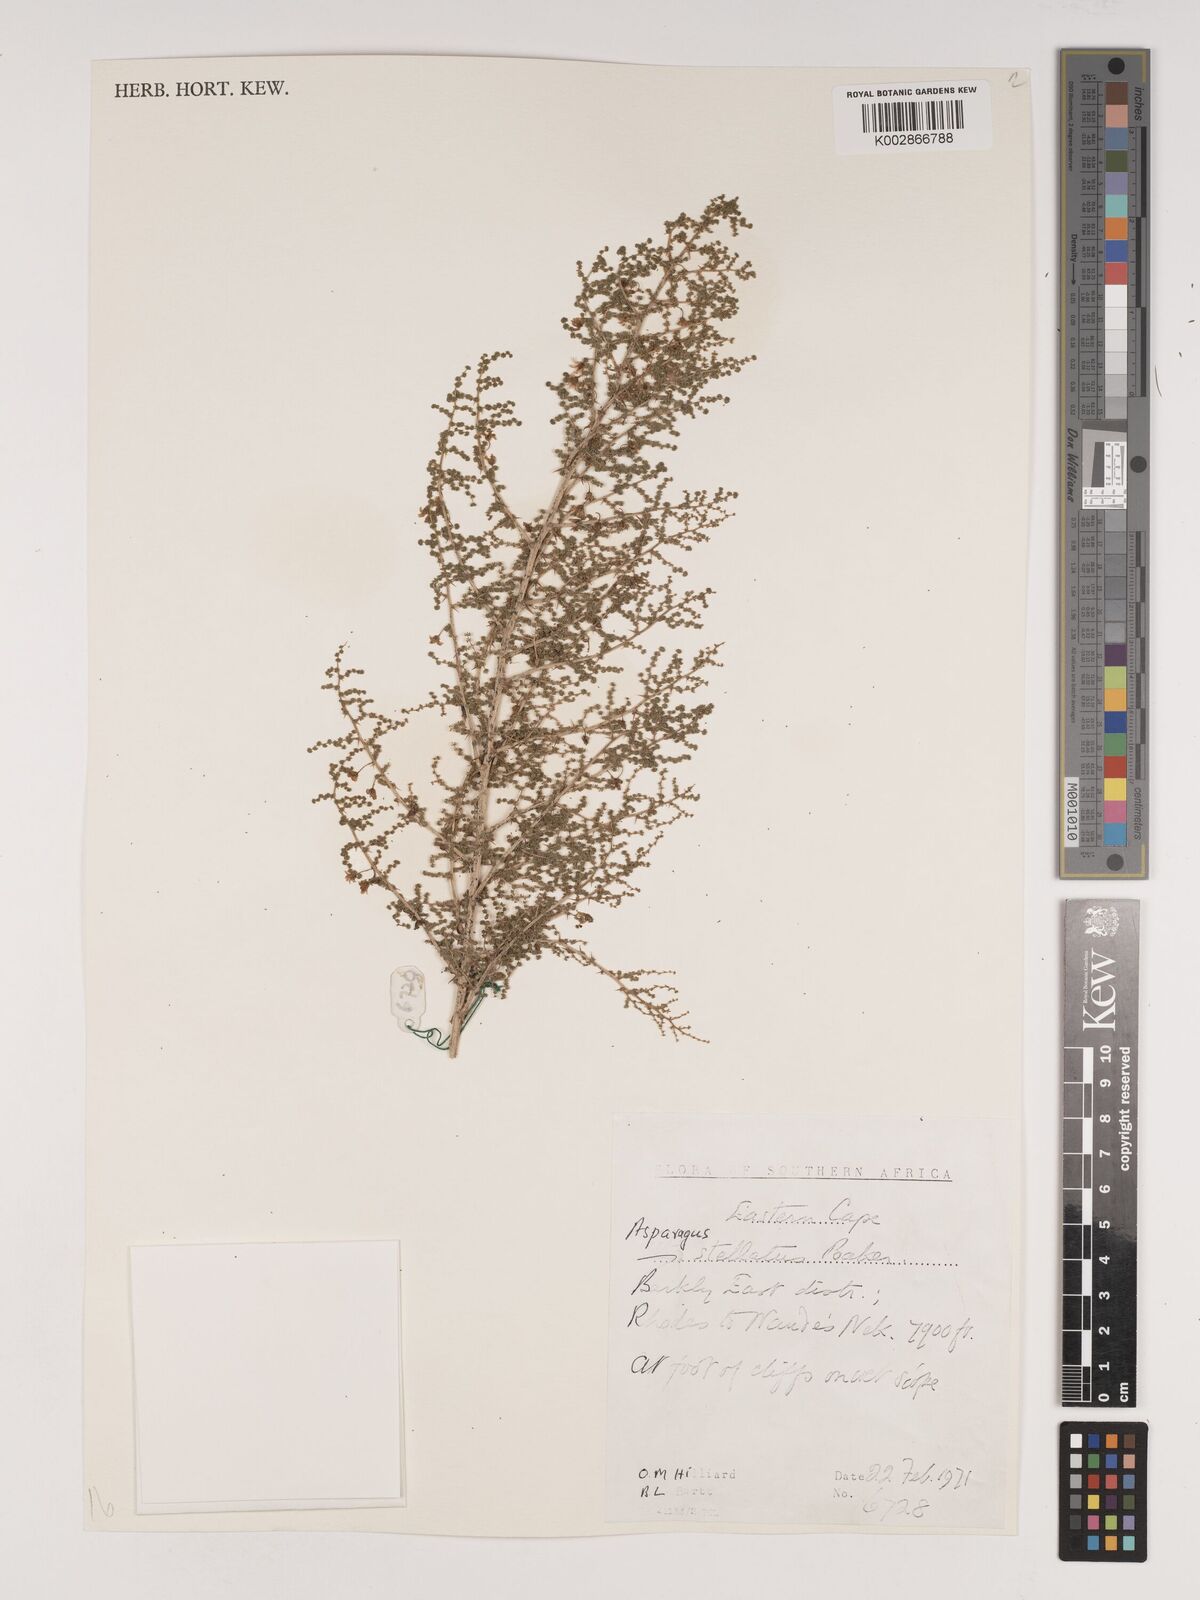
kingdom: Plantae
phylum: Tracheophyta
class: Liliopsida
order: Asparagales
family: Asparagaceae
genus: Asparagus
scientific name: Asparagus microraphis
